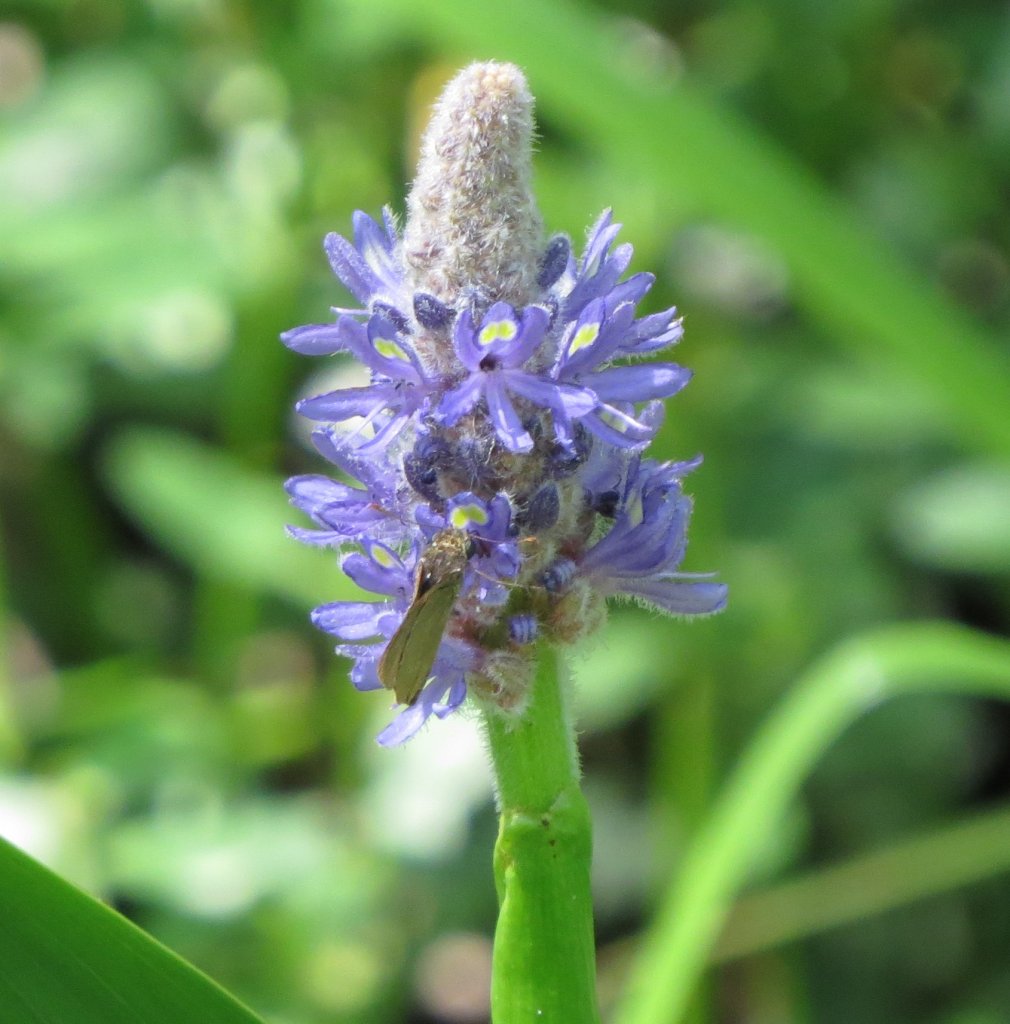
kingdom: Animalia
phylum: Arthropoda
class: Insecta
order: Lepidoptera
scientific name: Lepidoptera
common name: Butterflies
